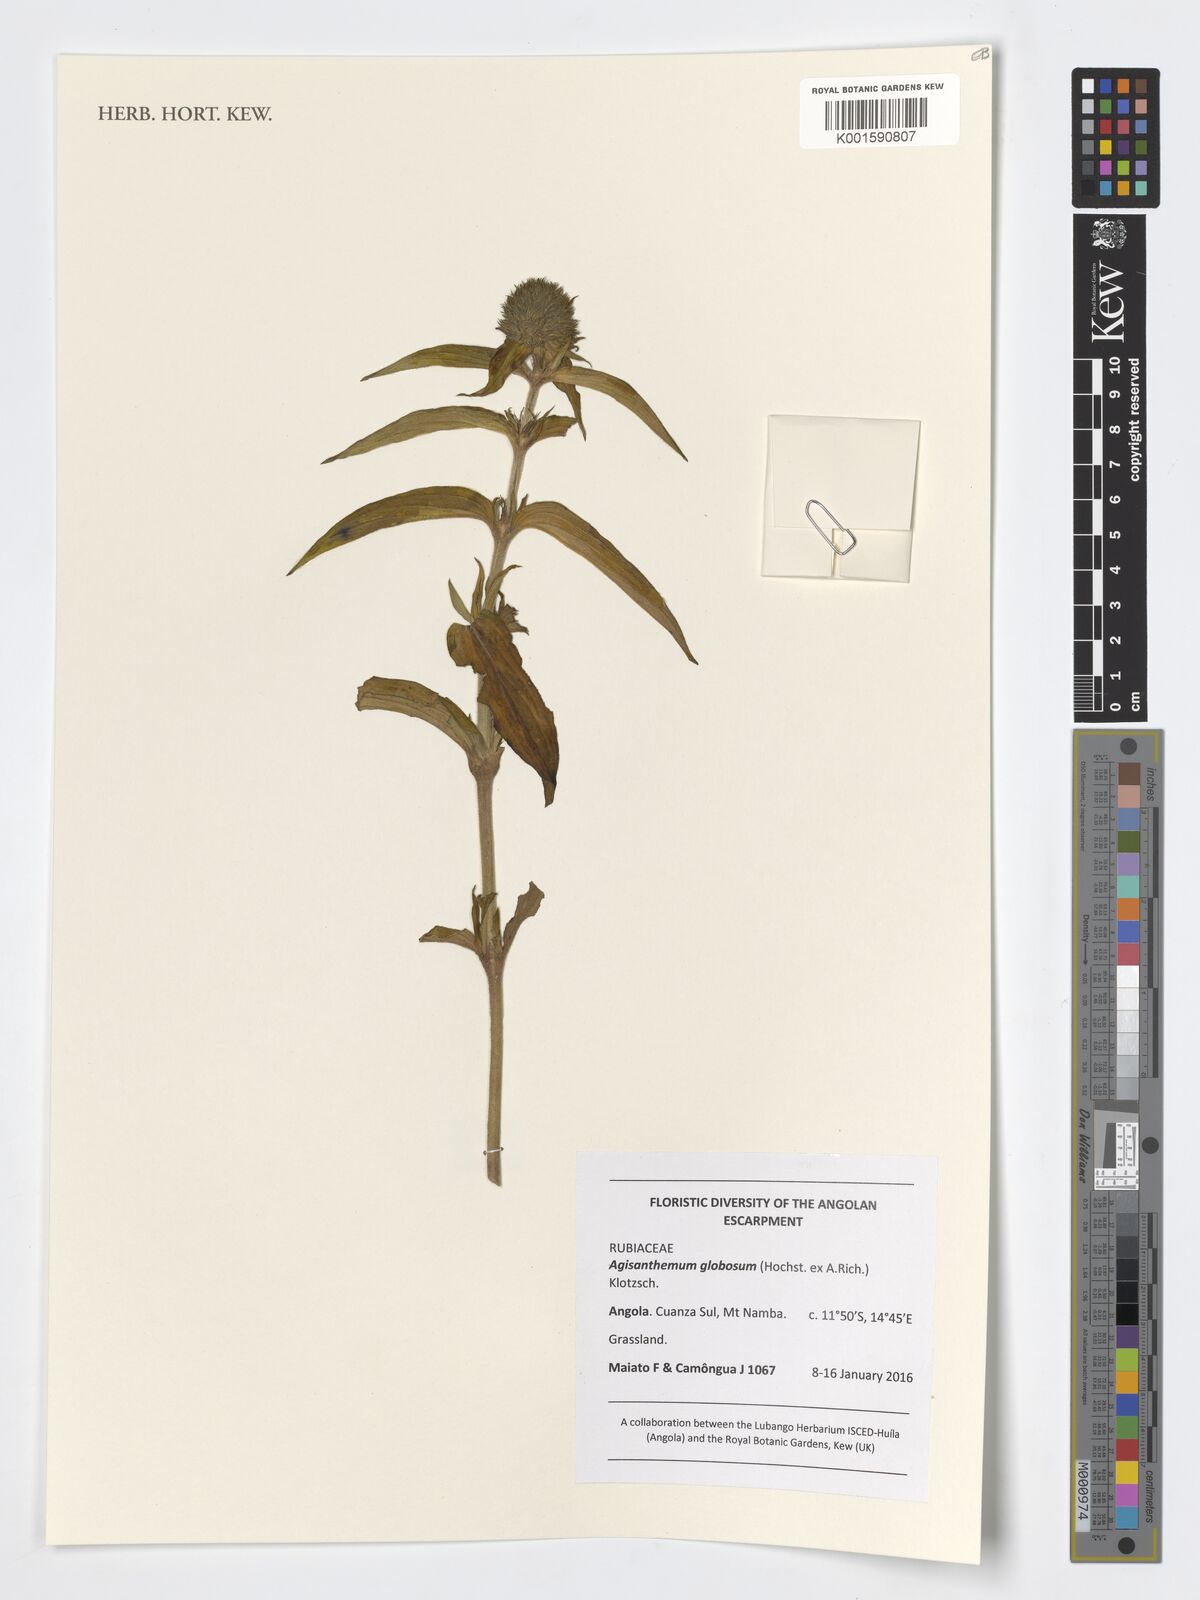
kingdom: Plantae
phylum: Tracheophyta
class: Magnoliopsida
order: Gentianales
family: Rubiaceae
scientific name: Rubiaceae
